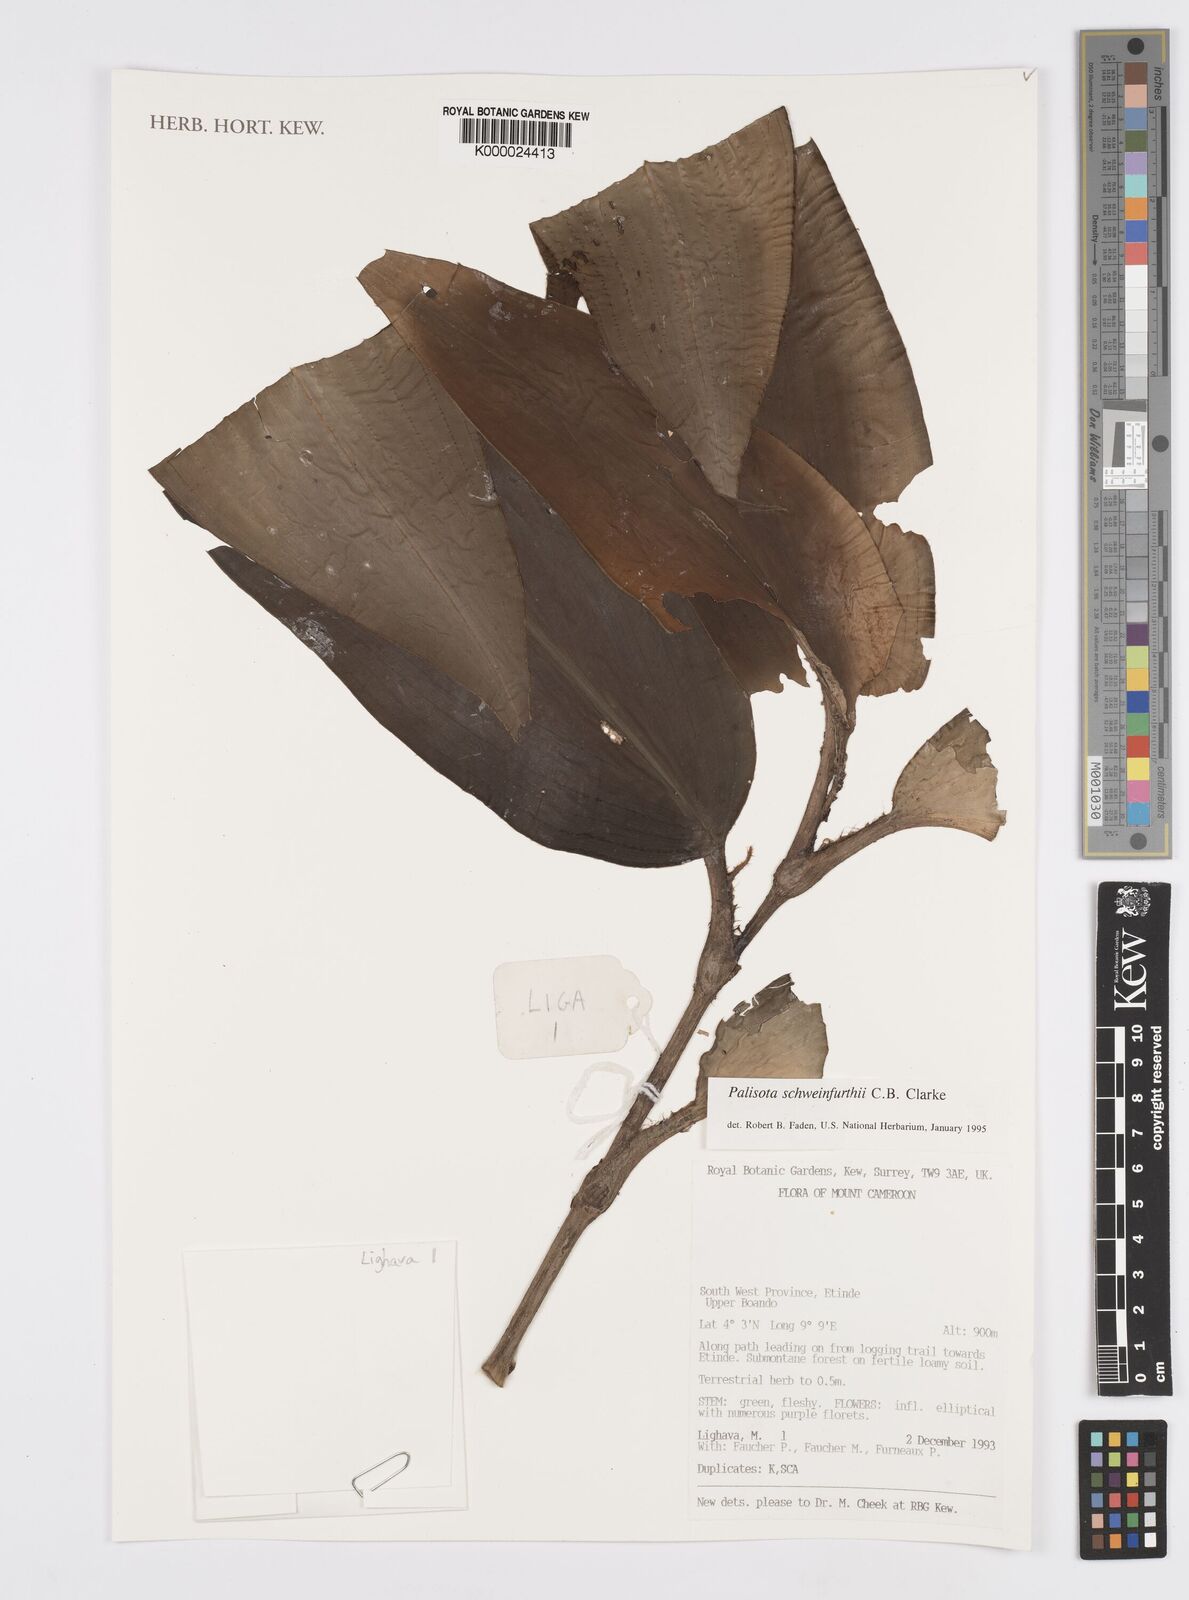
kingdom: Plantae
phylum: Tracheophyta
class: Liliopsida
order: Commelinales
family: Commelinaceae
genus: Palisota
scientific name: Palisota schweinfurthii
